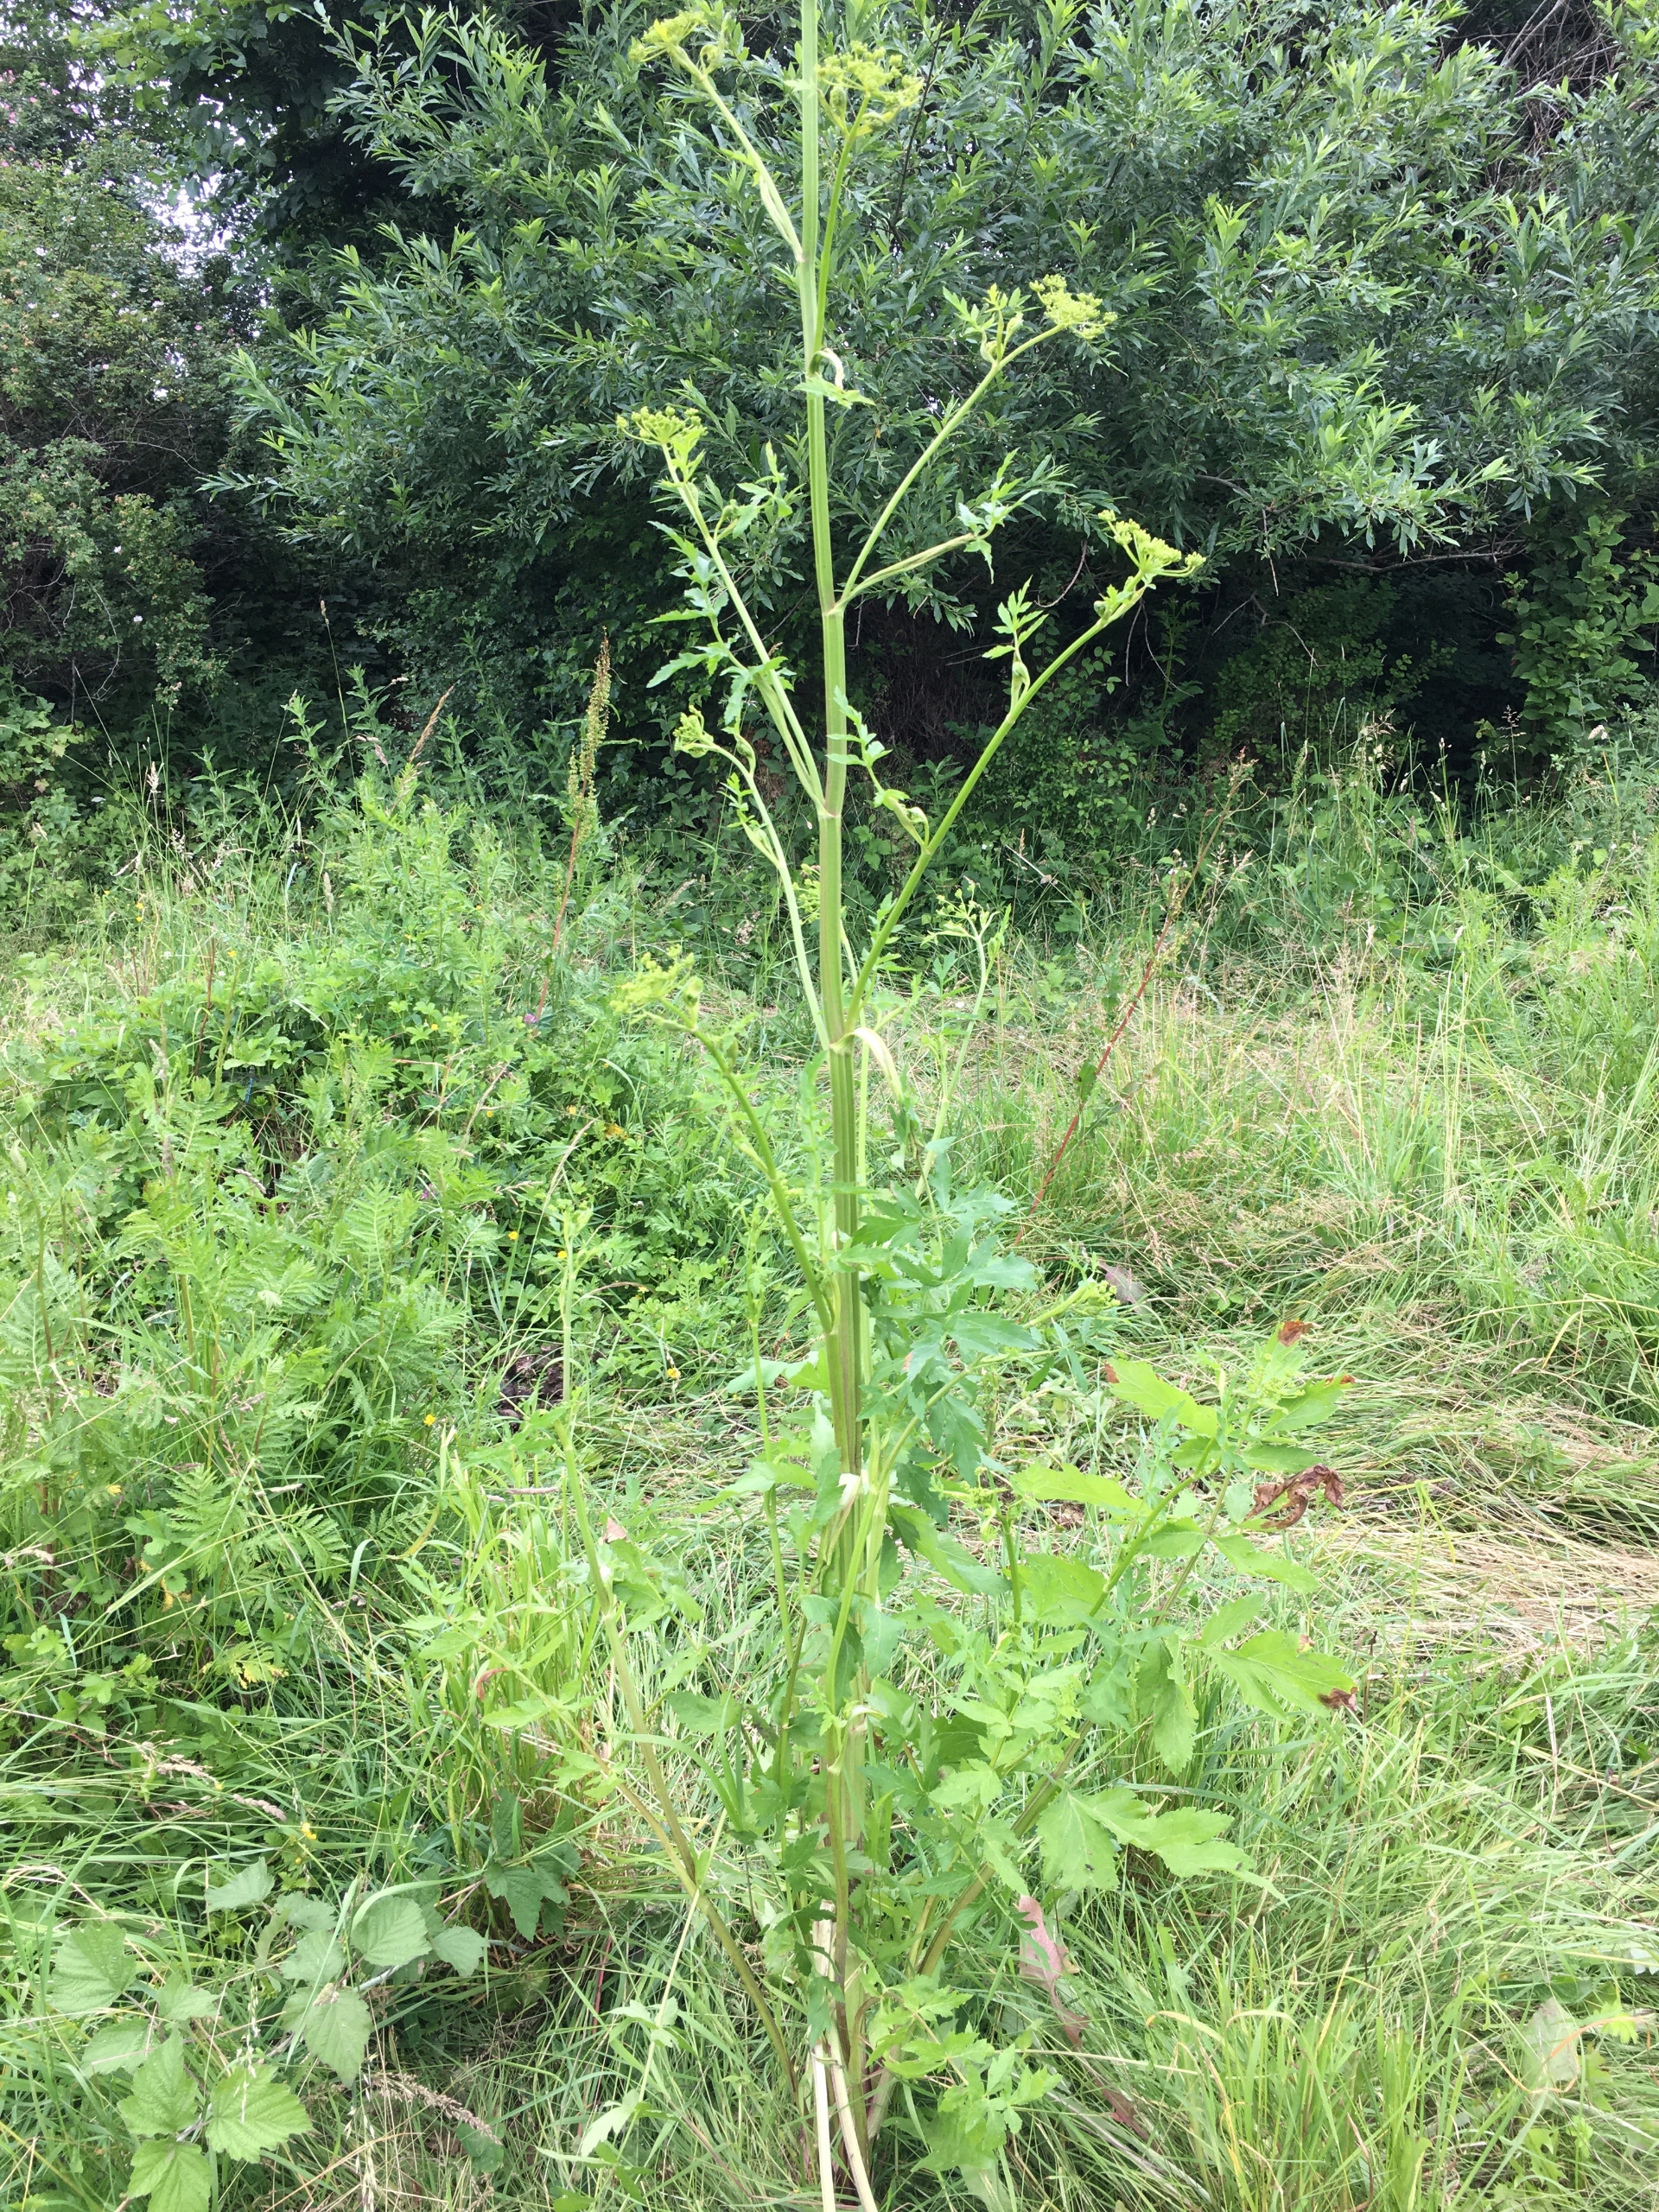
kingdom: Plantae
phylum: Tracheophyta
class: Magnoliopsida
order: Apiales
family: Apiaceae
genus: Pastinaca
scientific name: Pastinaca sativa
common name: Pastinak
